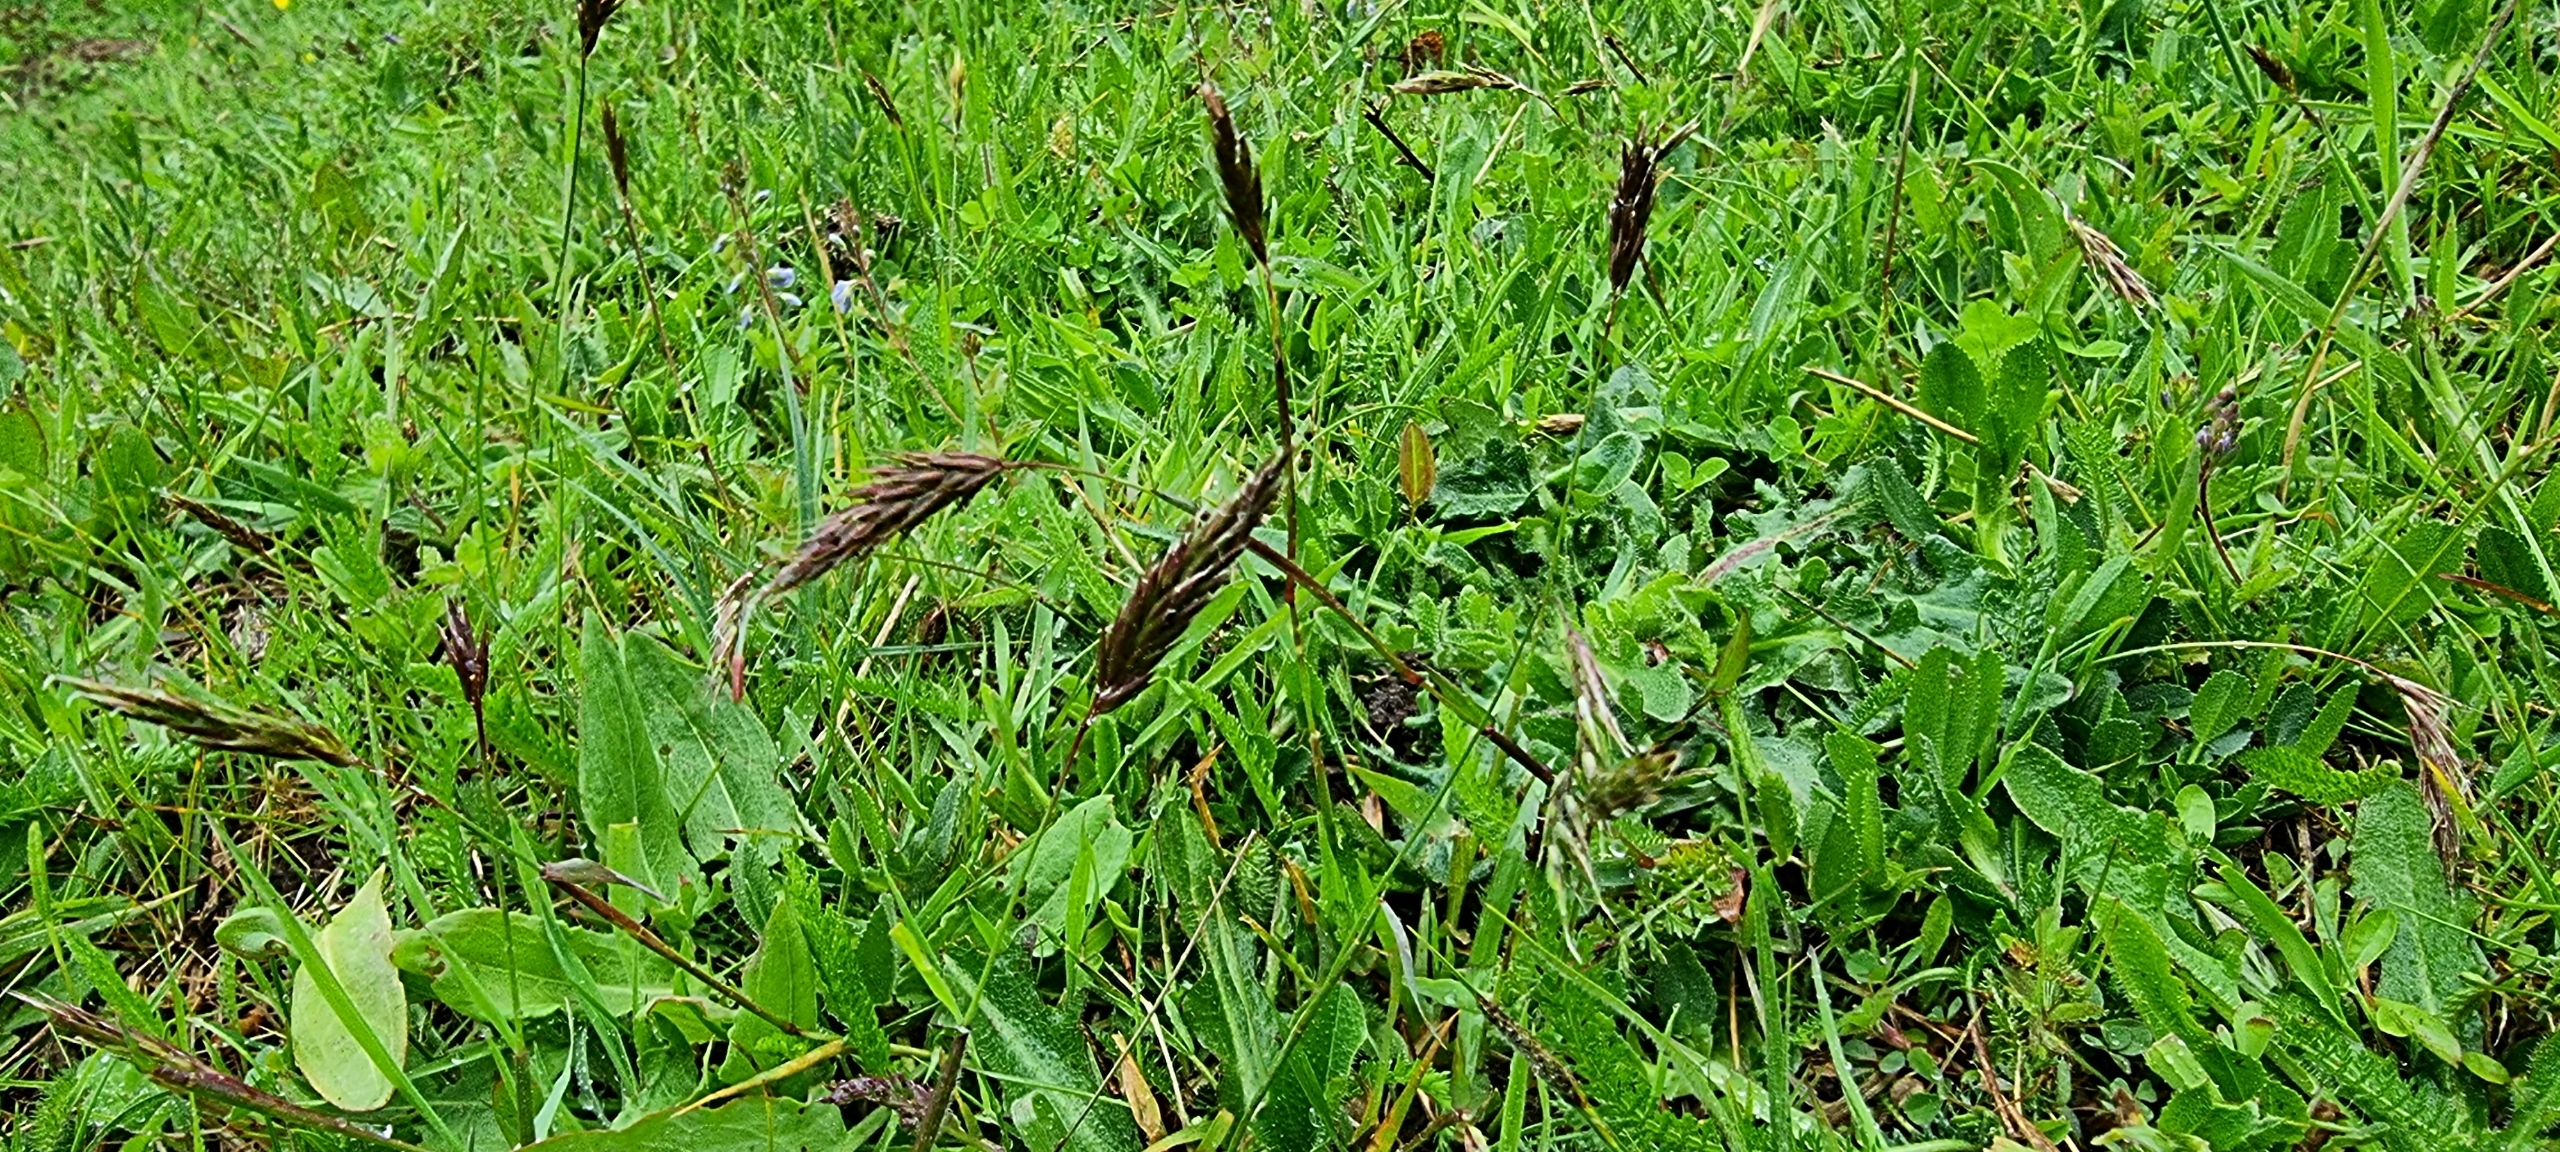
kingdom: Plantae
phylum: Tracheophyta
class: Liliopsida
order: Poales
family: Poaceae
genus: Anthoxanthum
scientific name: Anthoxanthum odoratum
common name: Vellugtende gulaks
